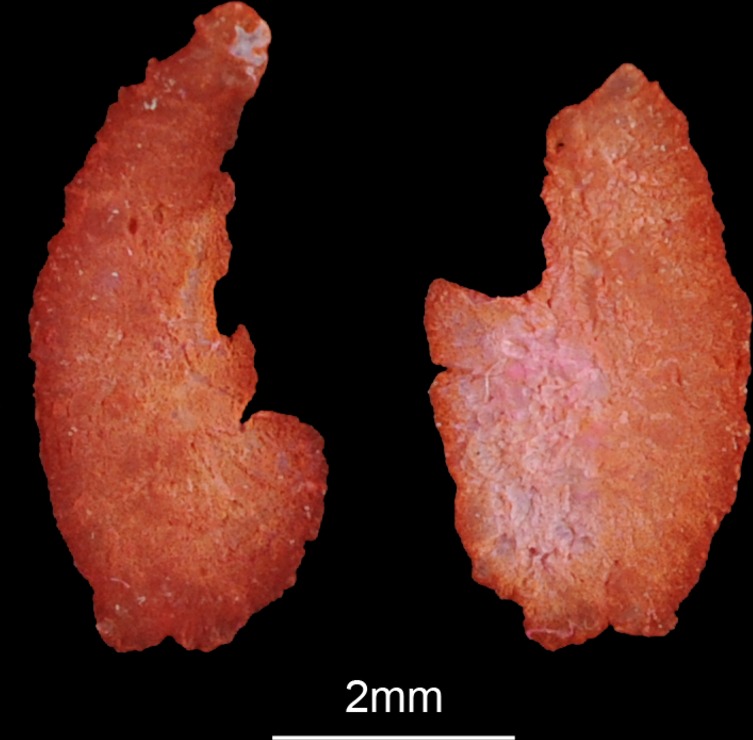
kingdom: Animalia
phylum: Chordata
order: Perciformes
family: Cichlidae
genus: Serranochromis
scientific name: Serranochromis angusticeps
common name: Thinface largemouth
